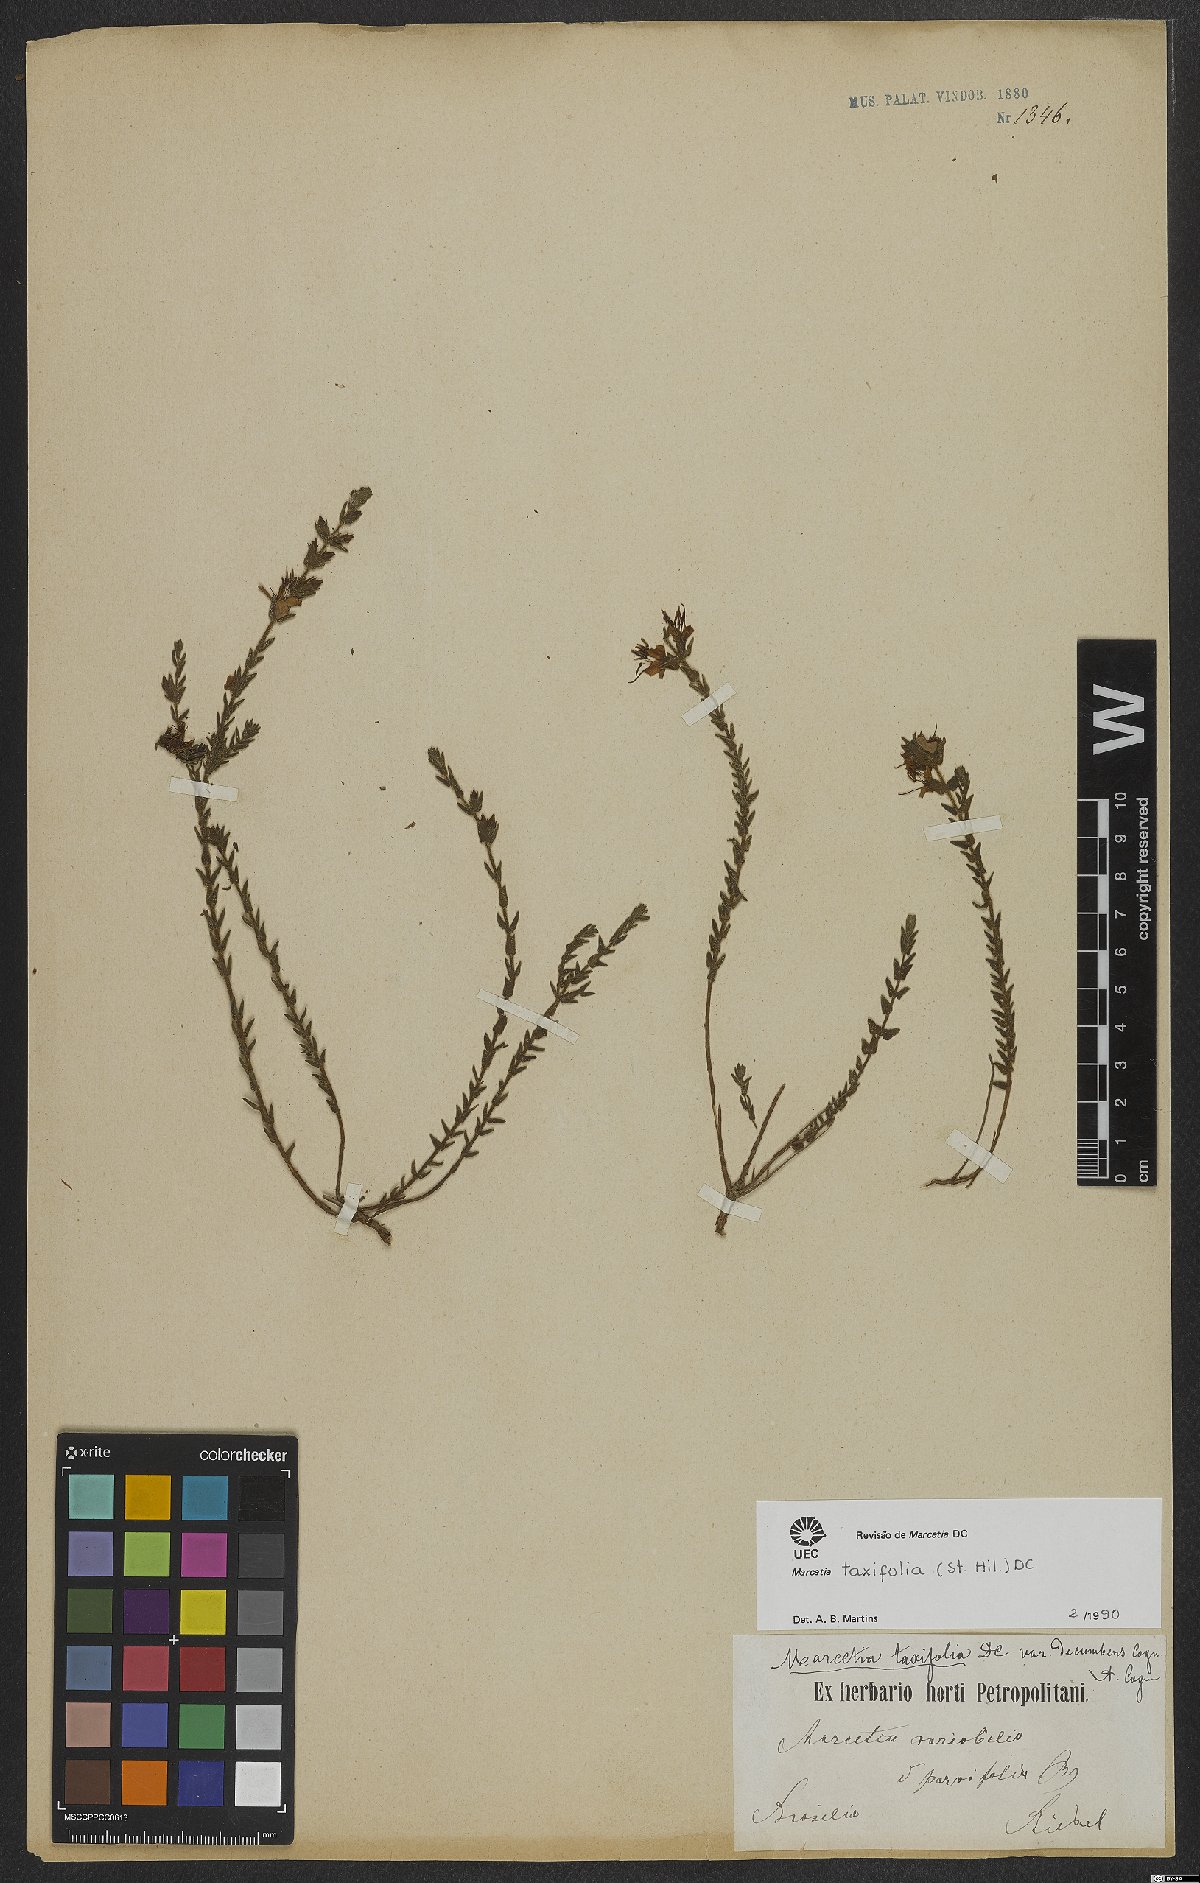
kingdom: Plantae
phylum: Tracheophyta
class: Magnoliopsida
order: Myrtales
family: Melastomataceae
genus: Marcetia
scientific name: Marcetia taxifolia
